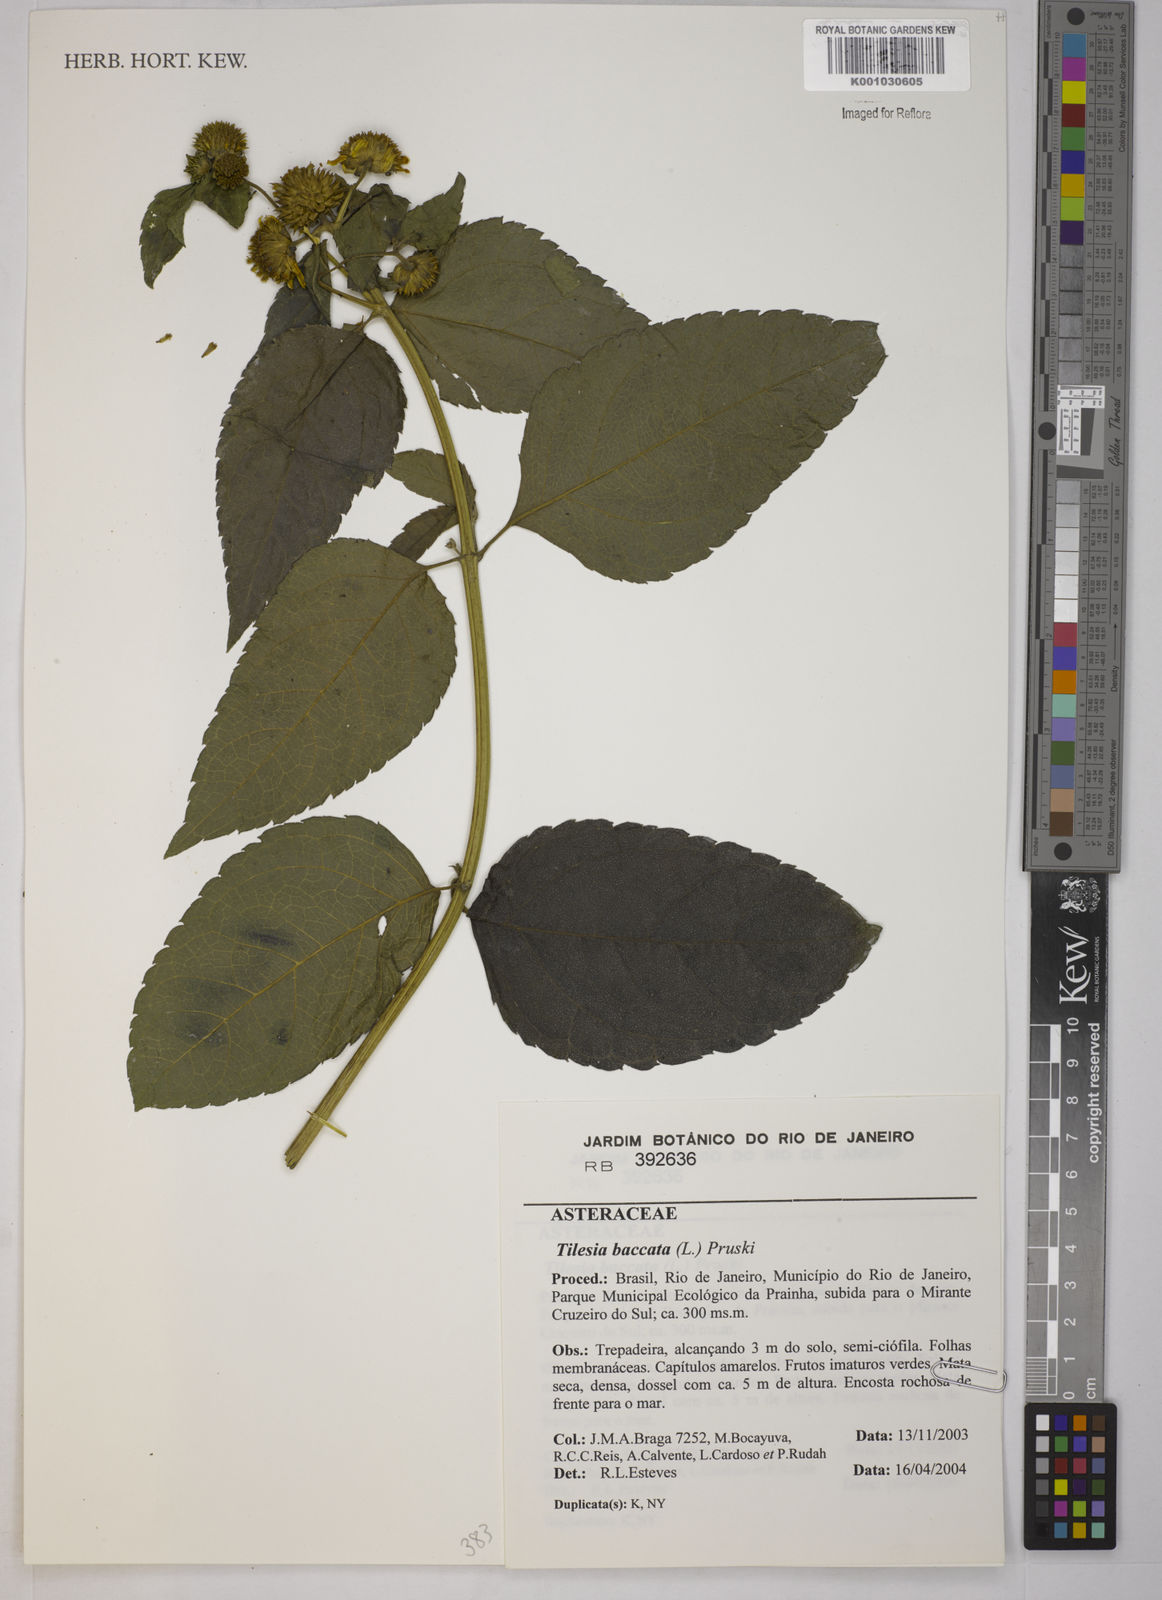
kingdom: Plantae
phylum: Tracheophyta
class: Magnoliopsida
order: Asterales
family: Asteraceae
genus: Tilesia
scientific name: Tilesia baccata
